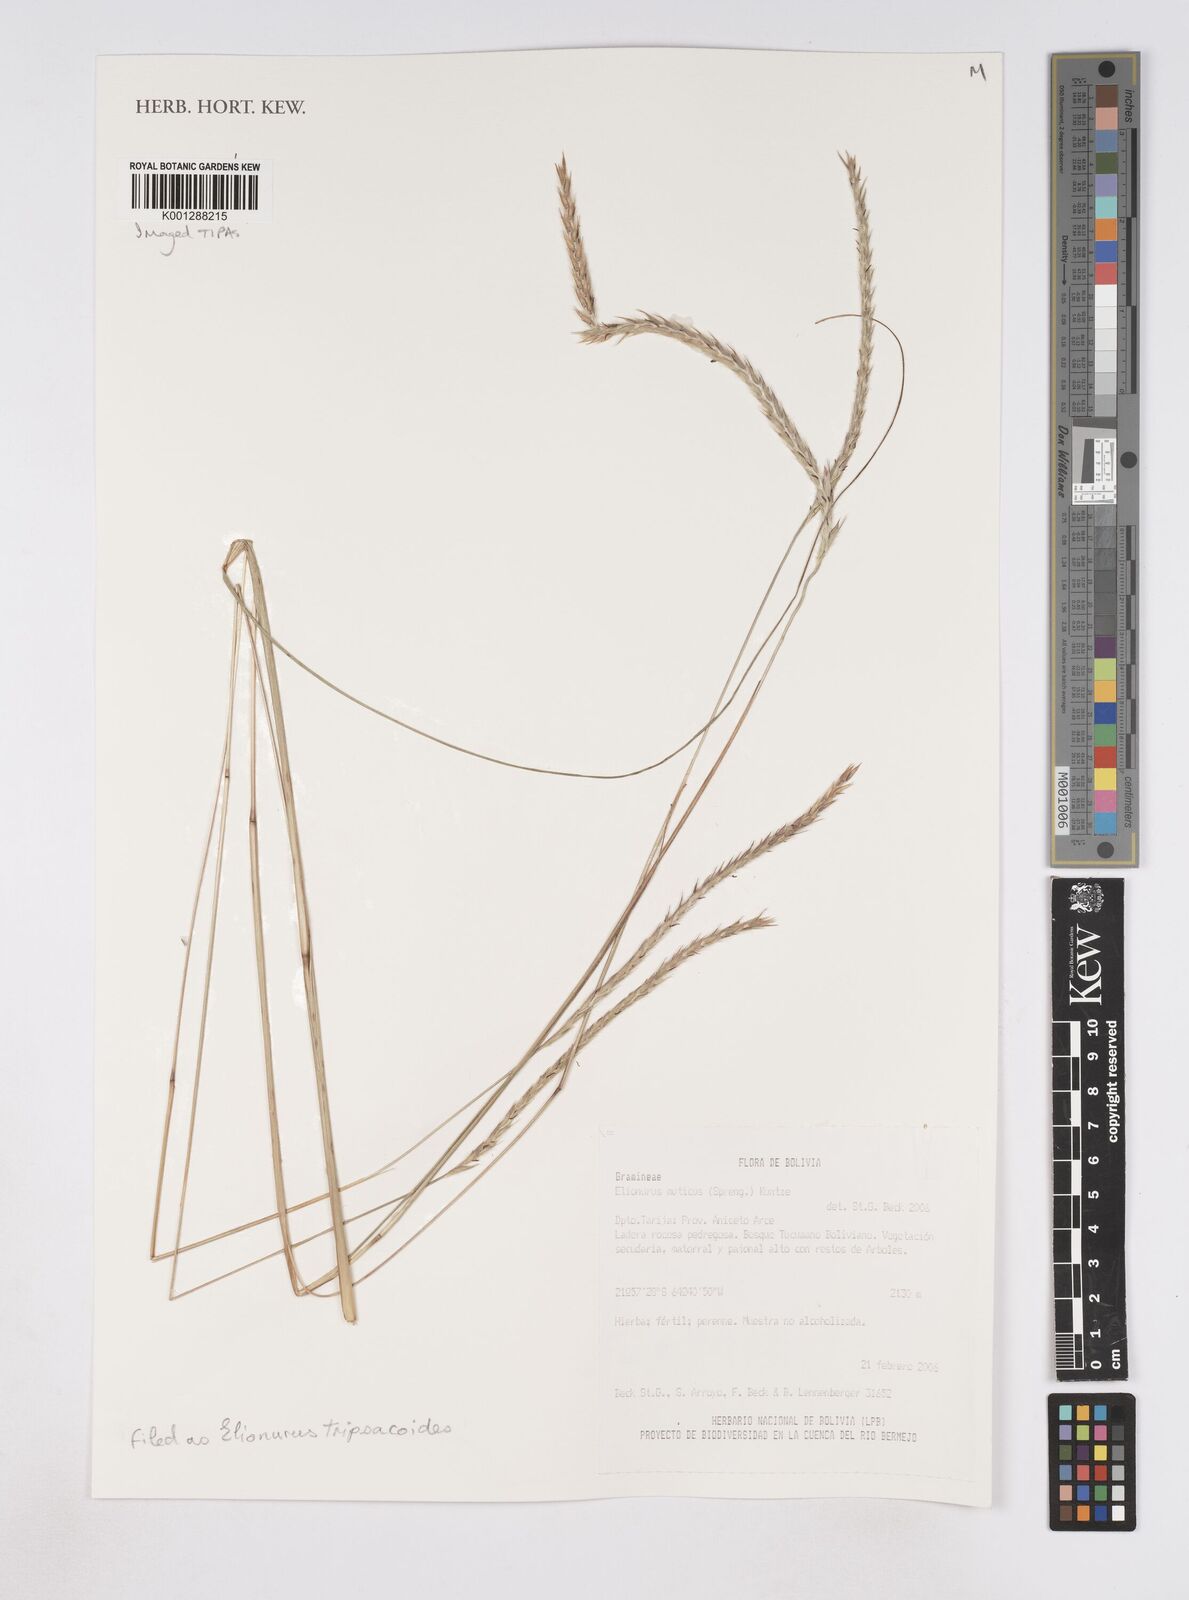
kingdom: Plantae
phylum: Tracheophyta
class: Liliopsida
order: Poales
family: Poaceae
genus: Elionurus
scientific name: Elionurus tripsacoides
